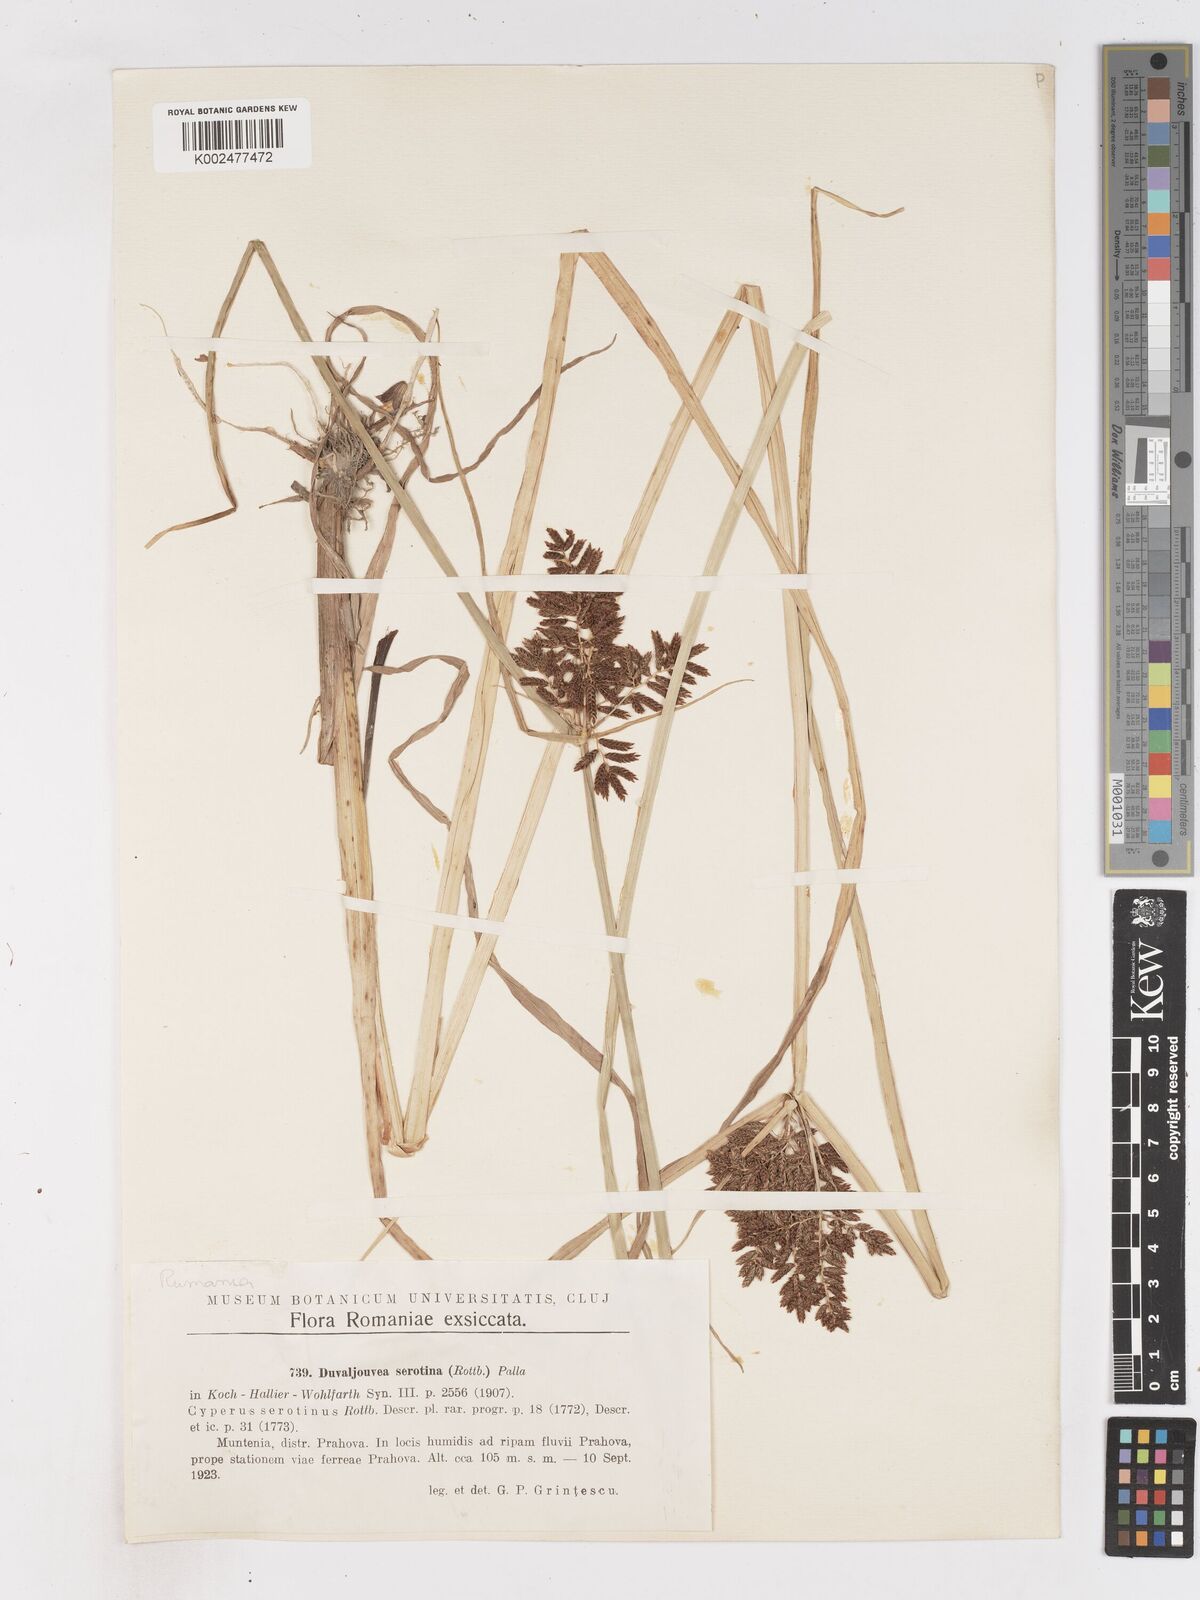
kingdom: Plantae
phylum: Tracheophyta
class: Liliopsida
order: Poales
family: Cyperaceae
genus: Cyperus
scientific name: Cyperus serotinus
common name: Tidalmarsh flatsedge
